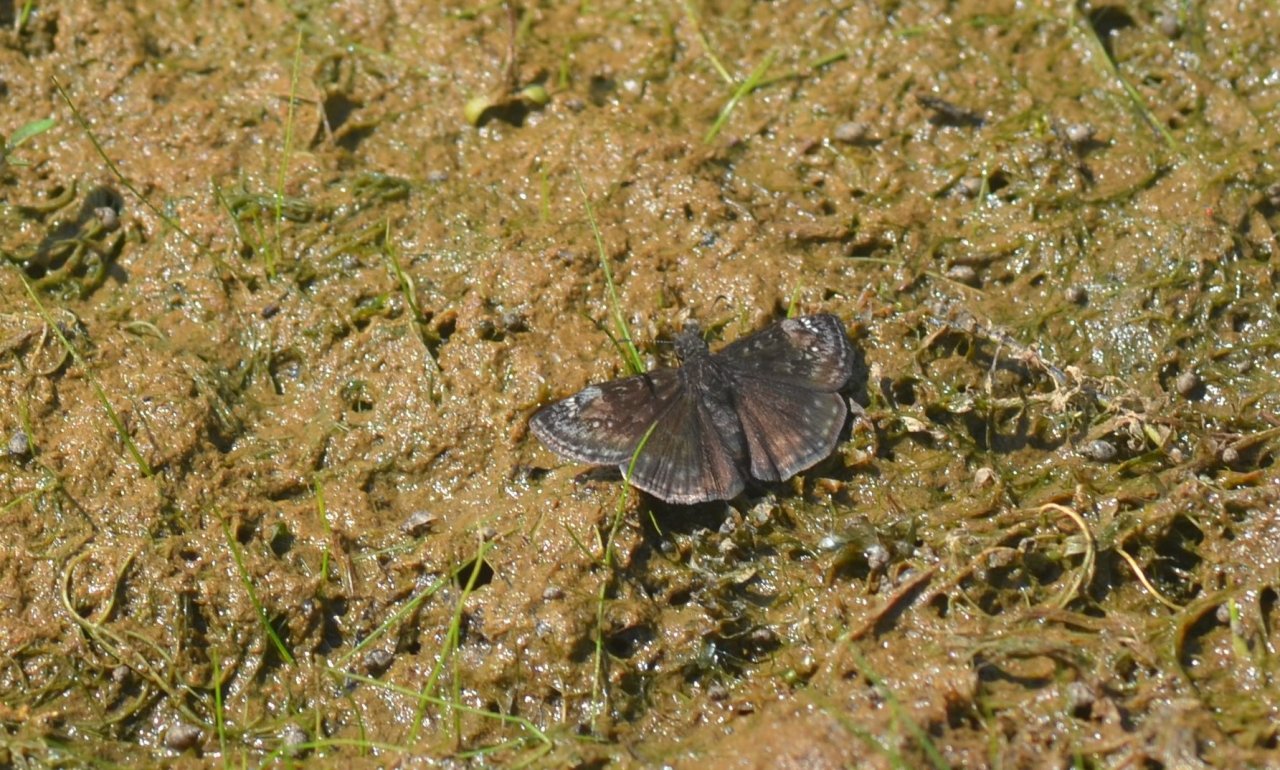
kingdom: Animalia
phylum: Arthropoda
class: Insecta
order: Lepidoptera
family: Hesperiidae
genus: Erynnis
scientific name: Erynnis
